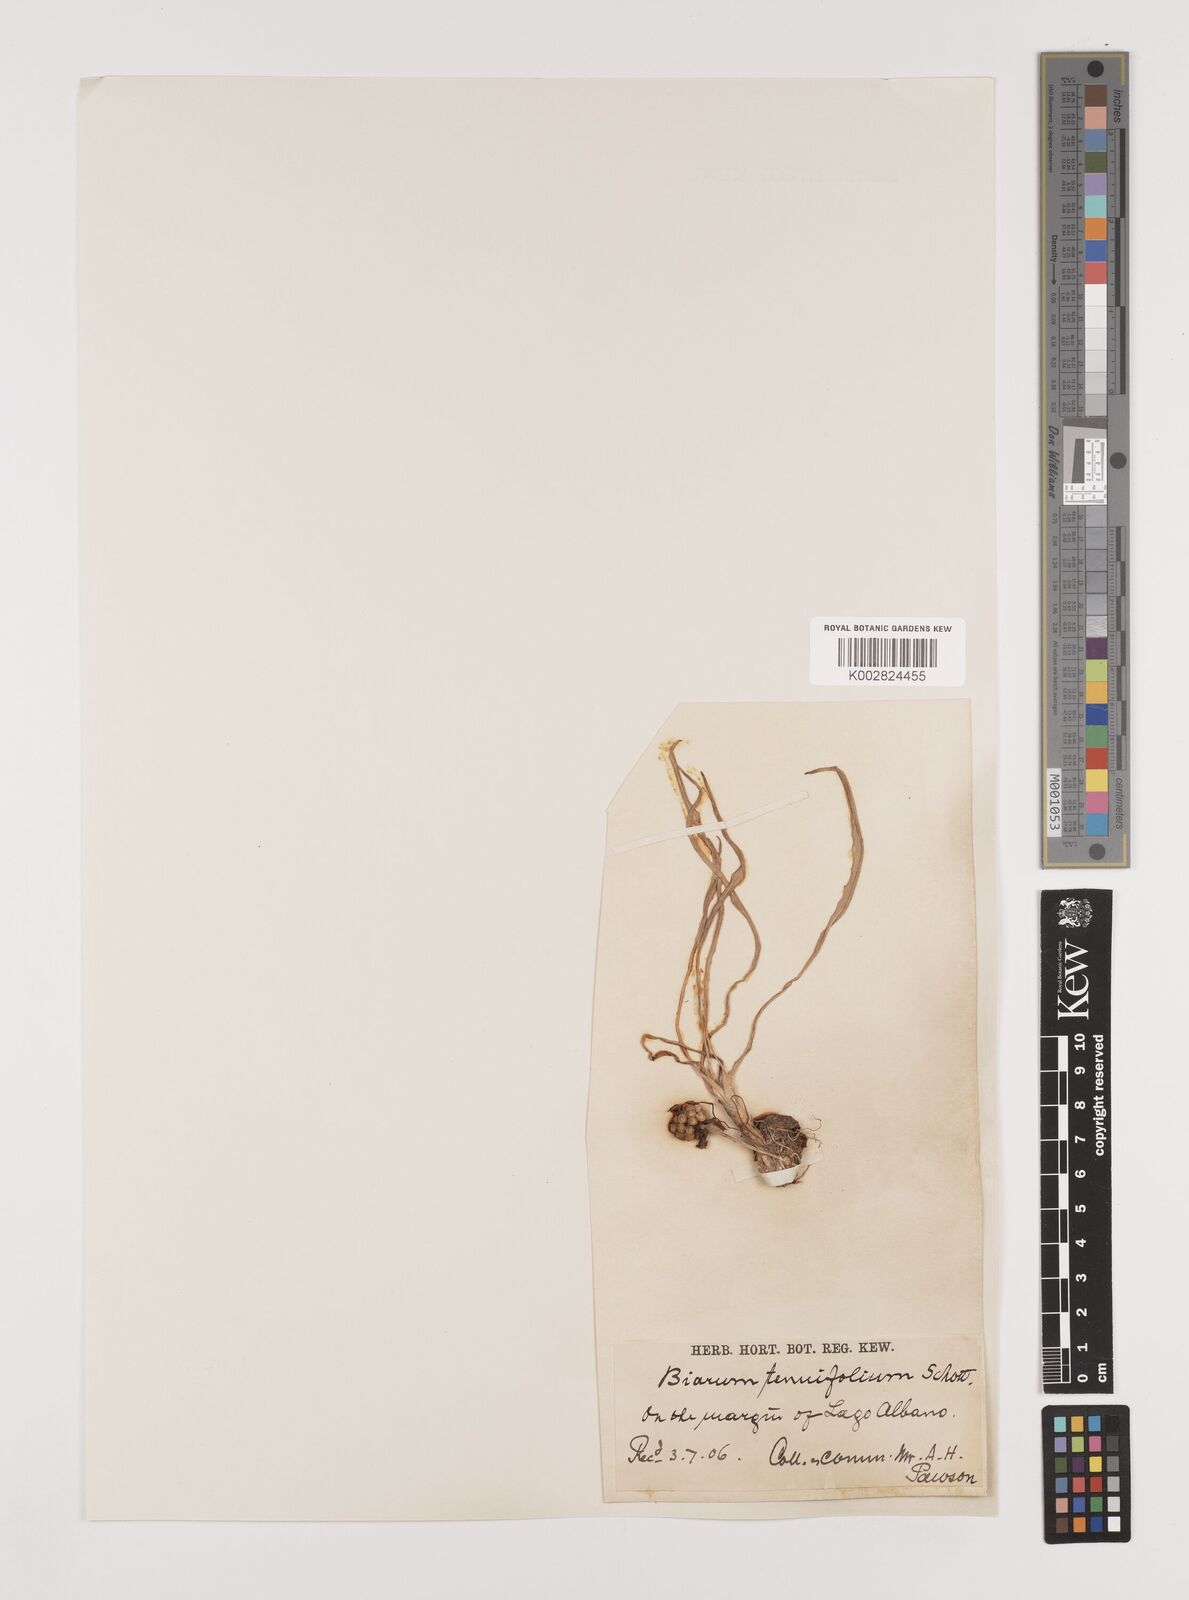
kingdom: Plantae
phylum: Tracheophyta
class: Liliopsida
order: Alismatales
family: Araceae
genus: Biarum
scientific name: Biarum tenuifolium
